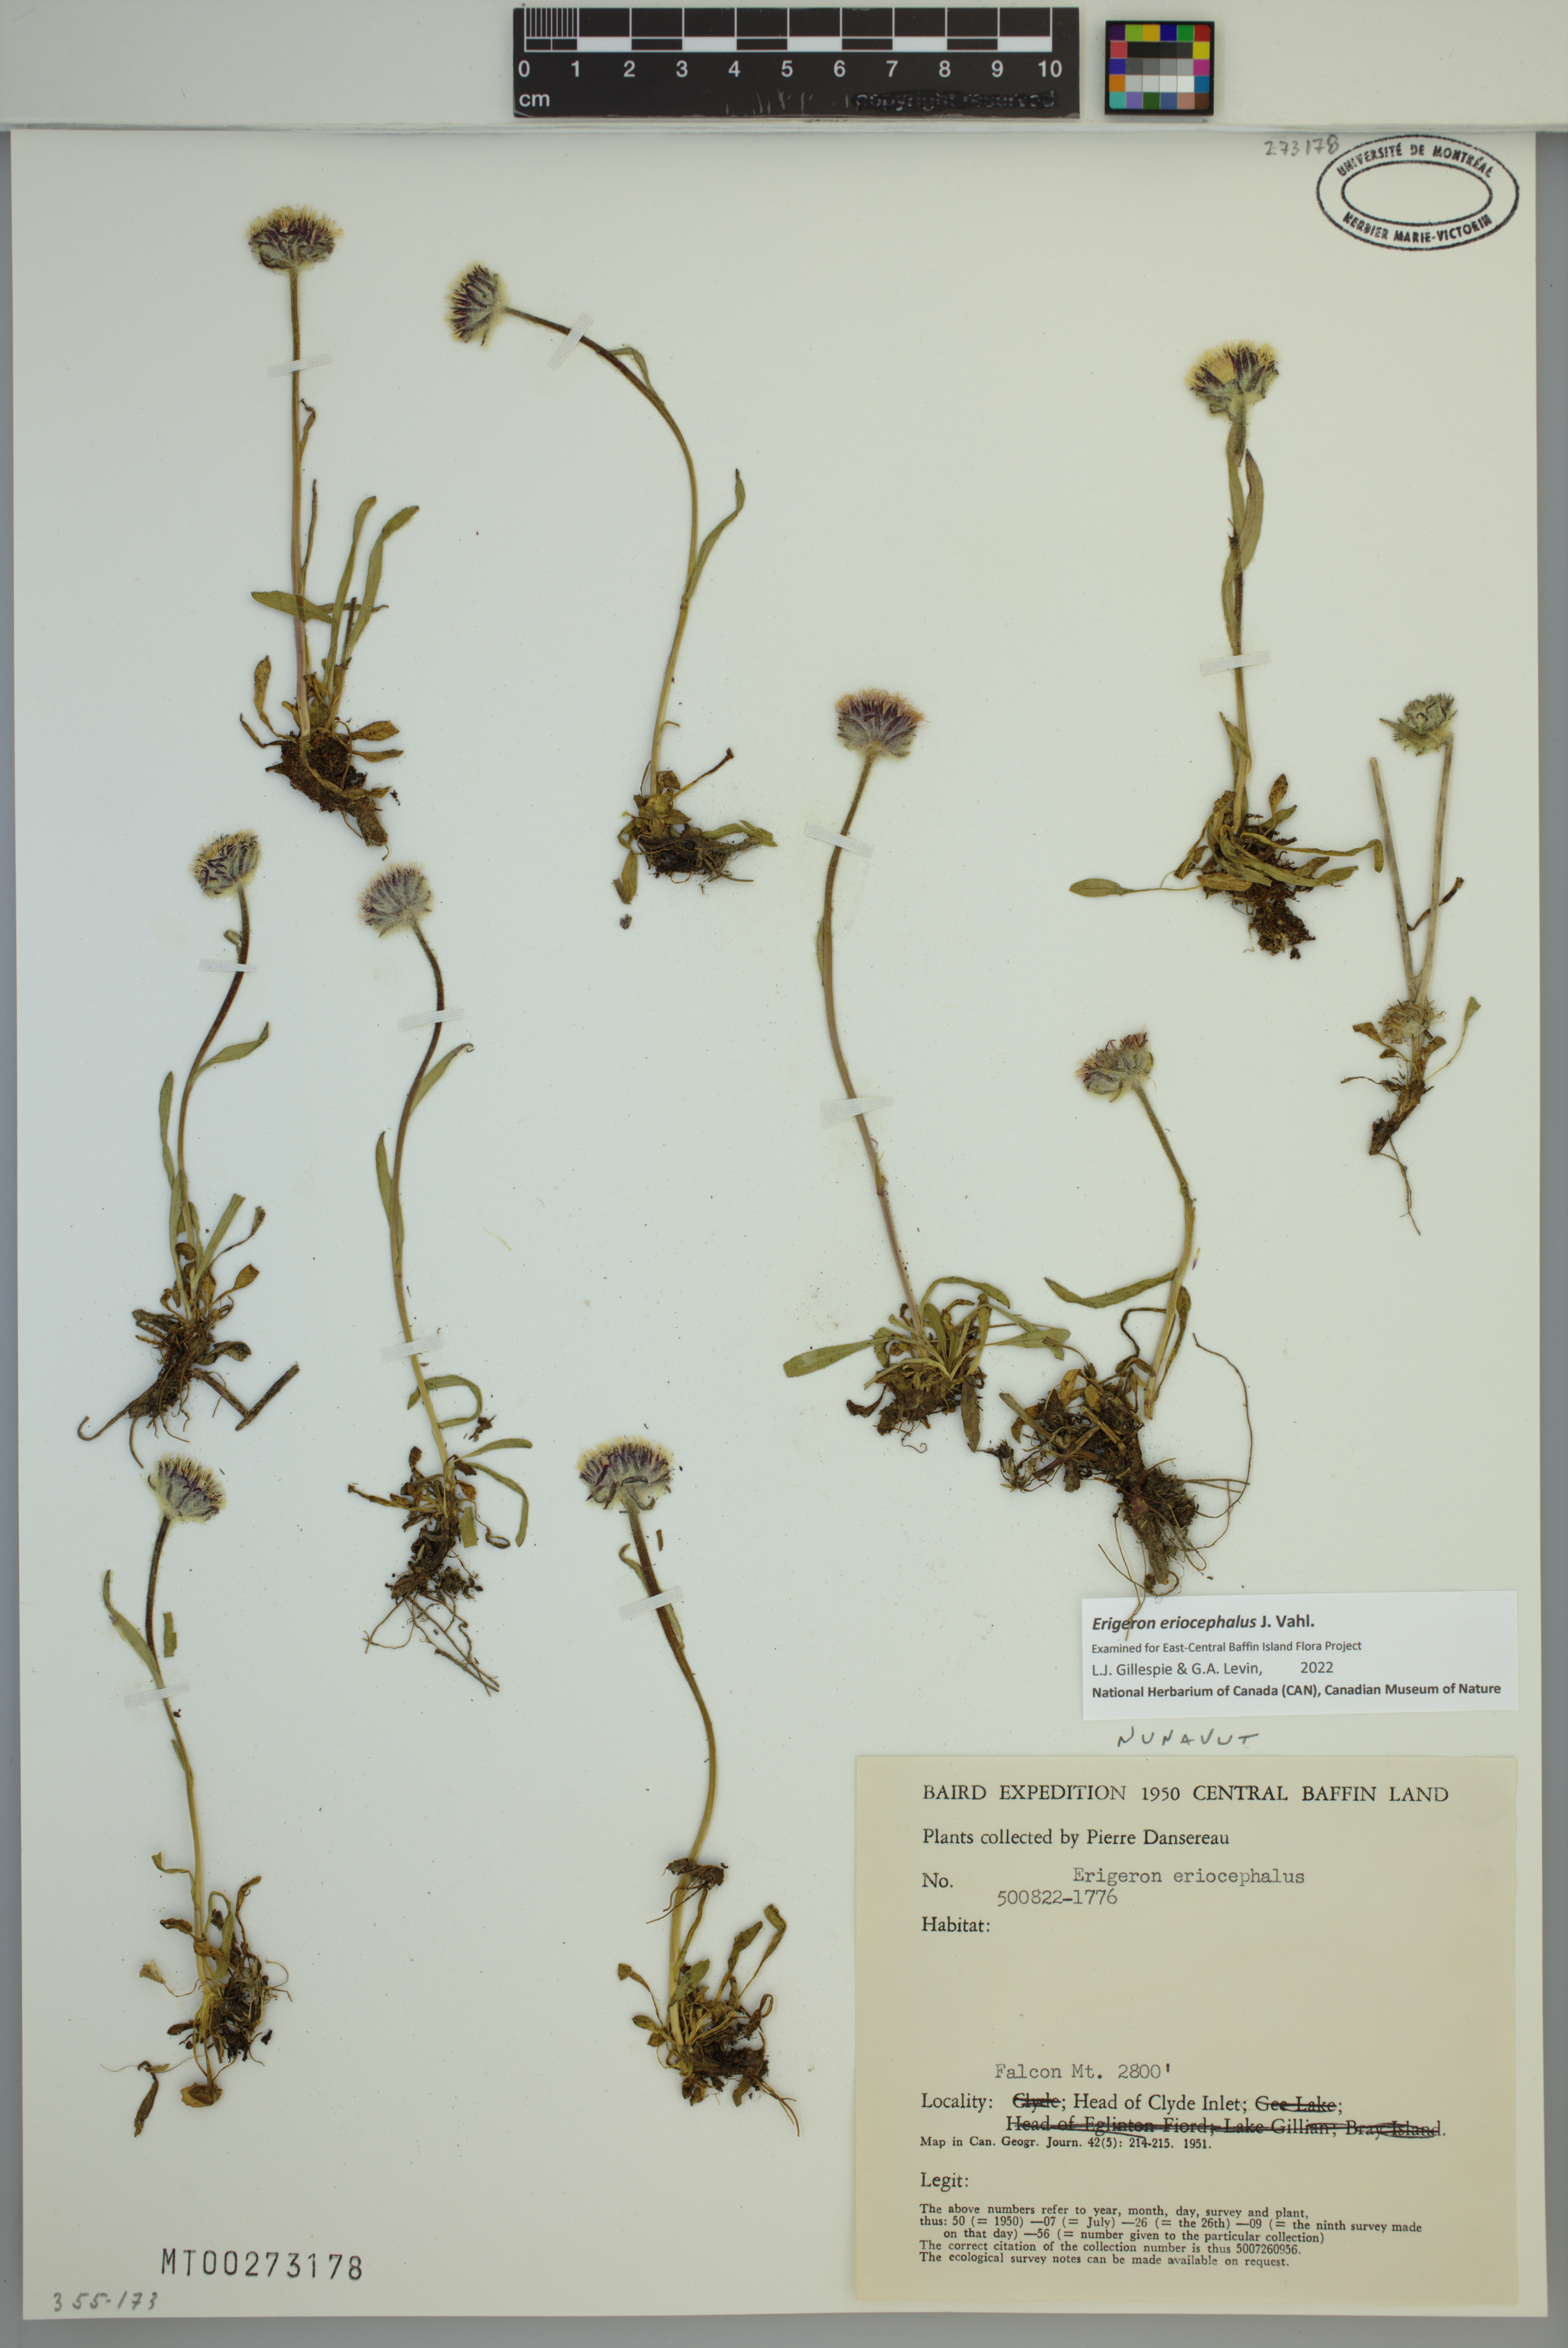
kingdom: Plantae
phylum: Tracheophyta
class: Magnoliopsida
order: Asterales
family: Asteraceae
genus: Erigeron
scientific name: Erigeron eriocephalus
